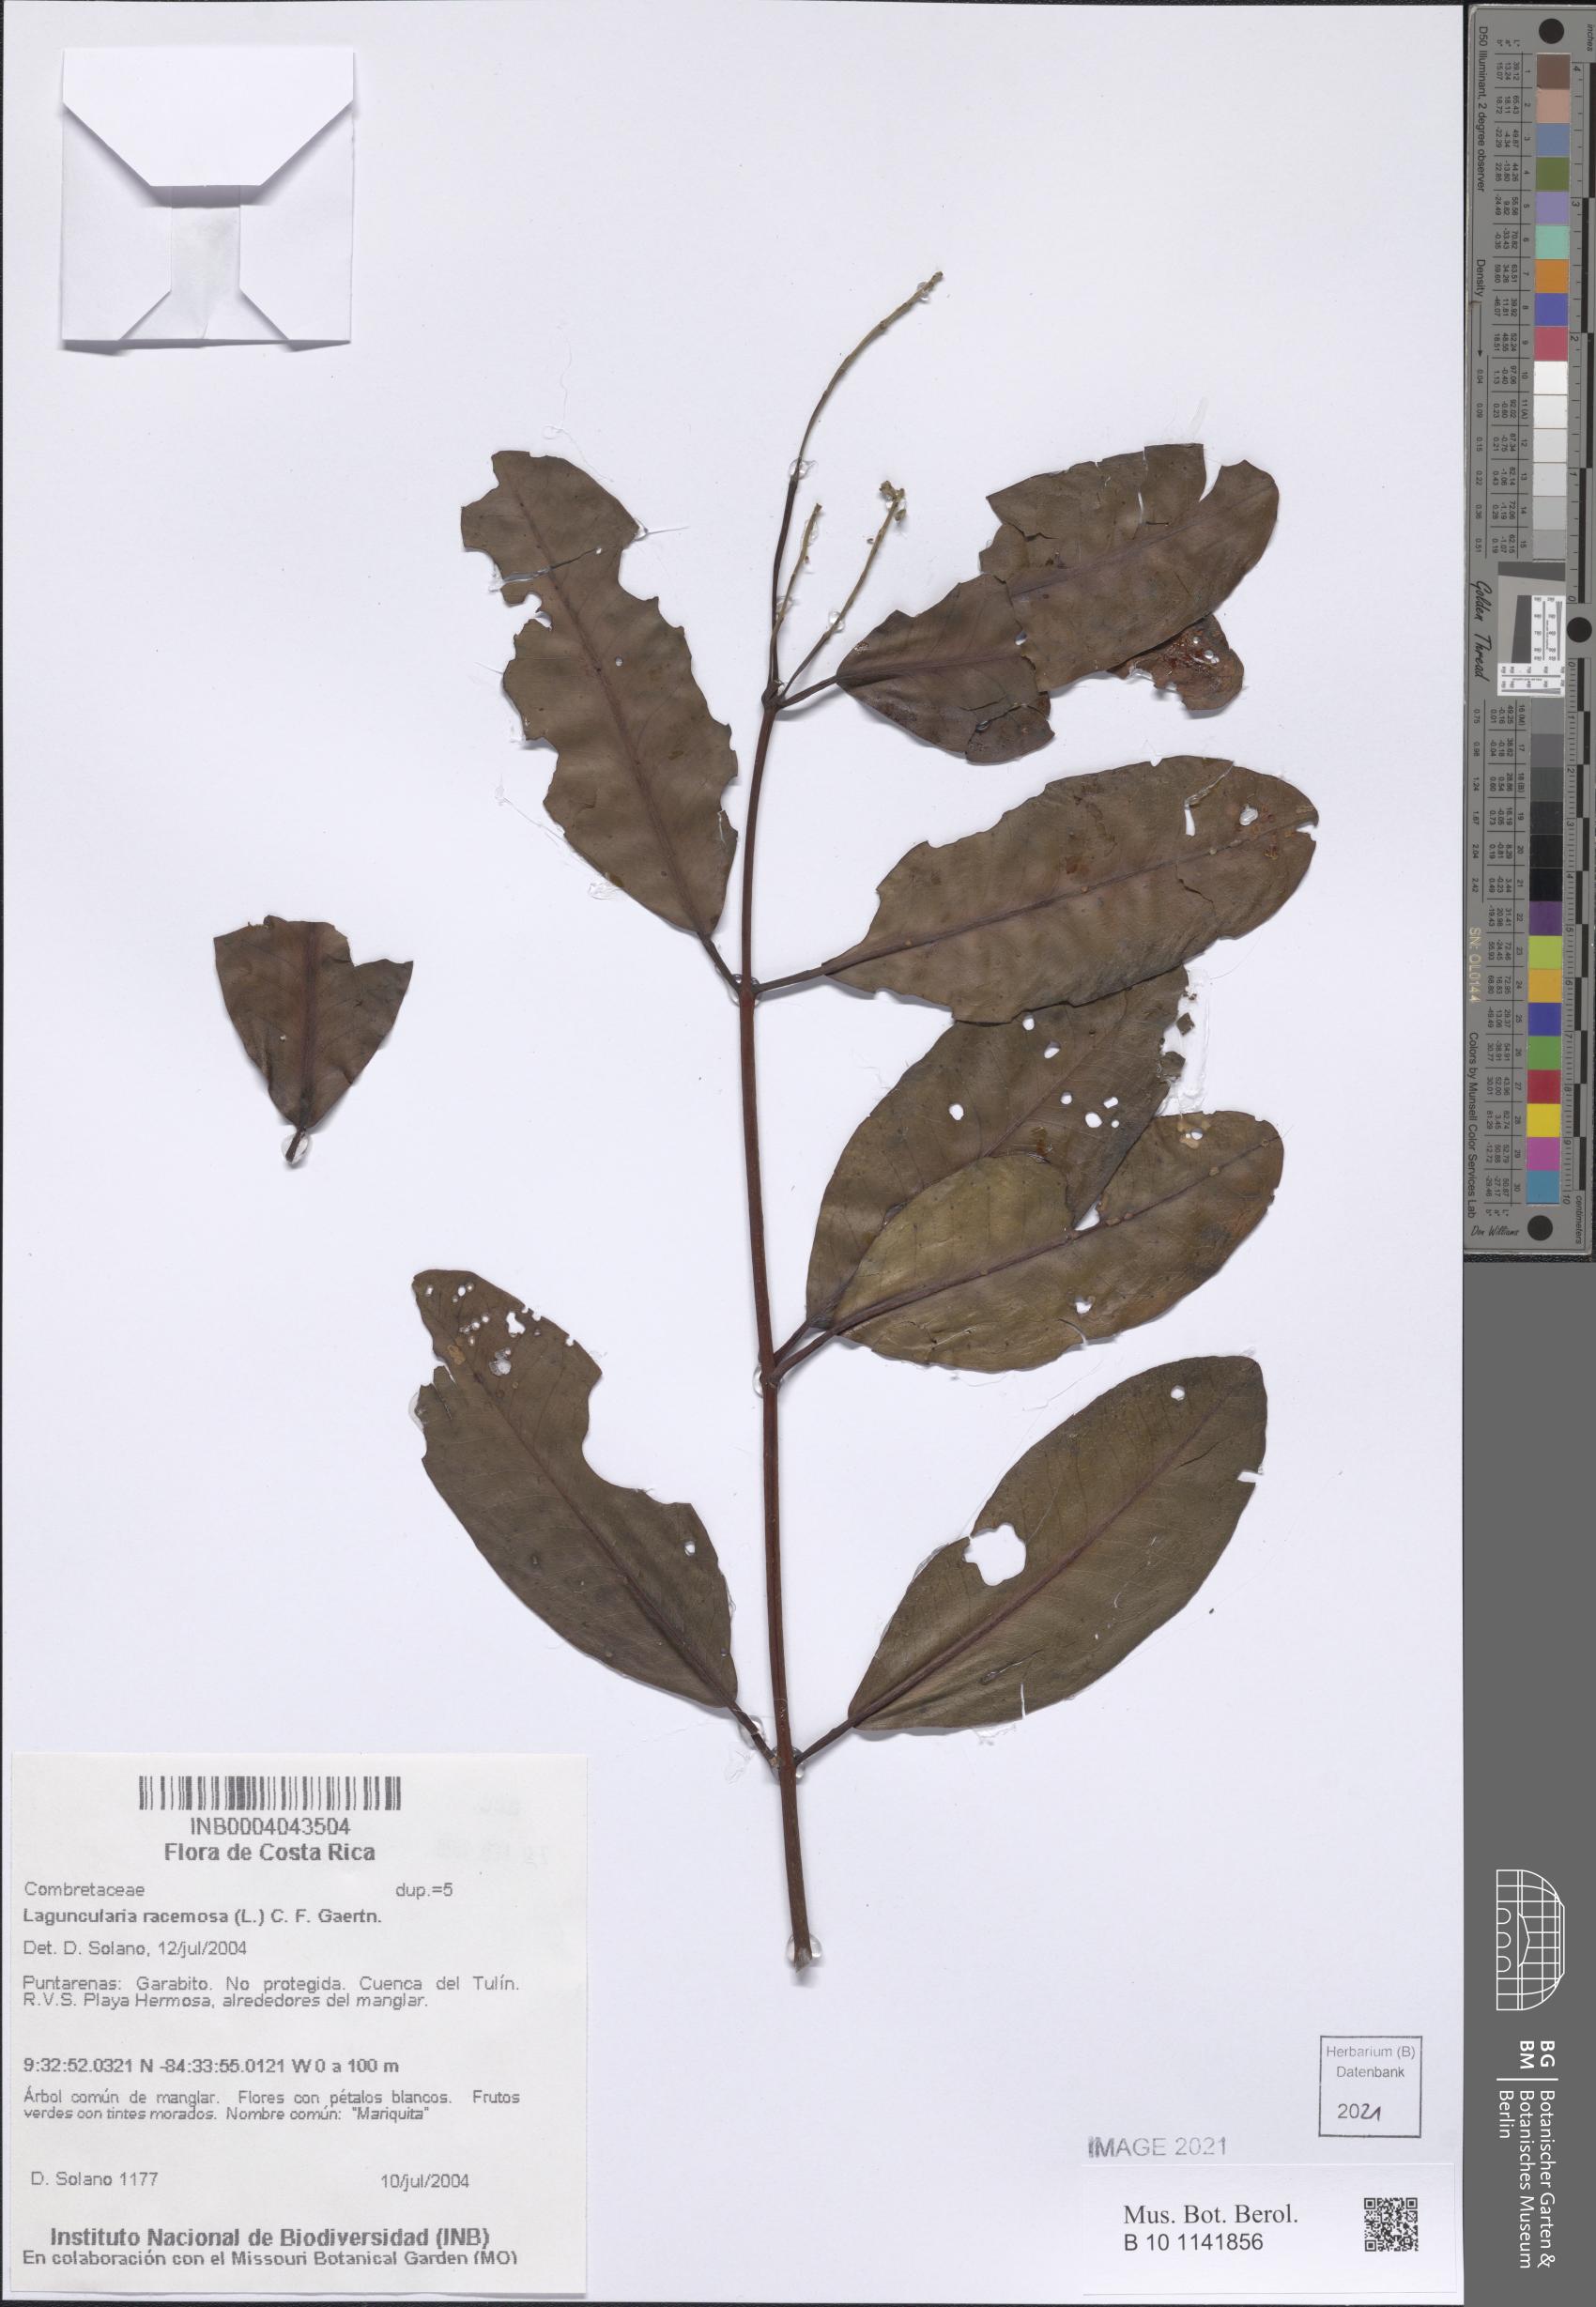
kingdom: Plantae
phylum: Tracheophyta
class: Magnoliopsida
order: Myrtales
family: Combretaceae
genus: Laguncularia
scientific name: Laguncularia racemosa
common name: White mangrove
